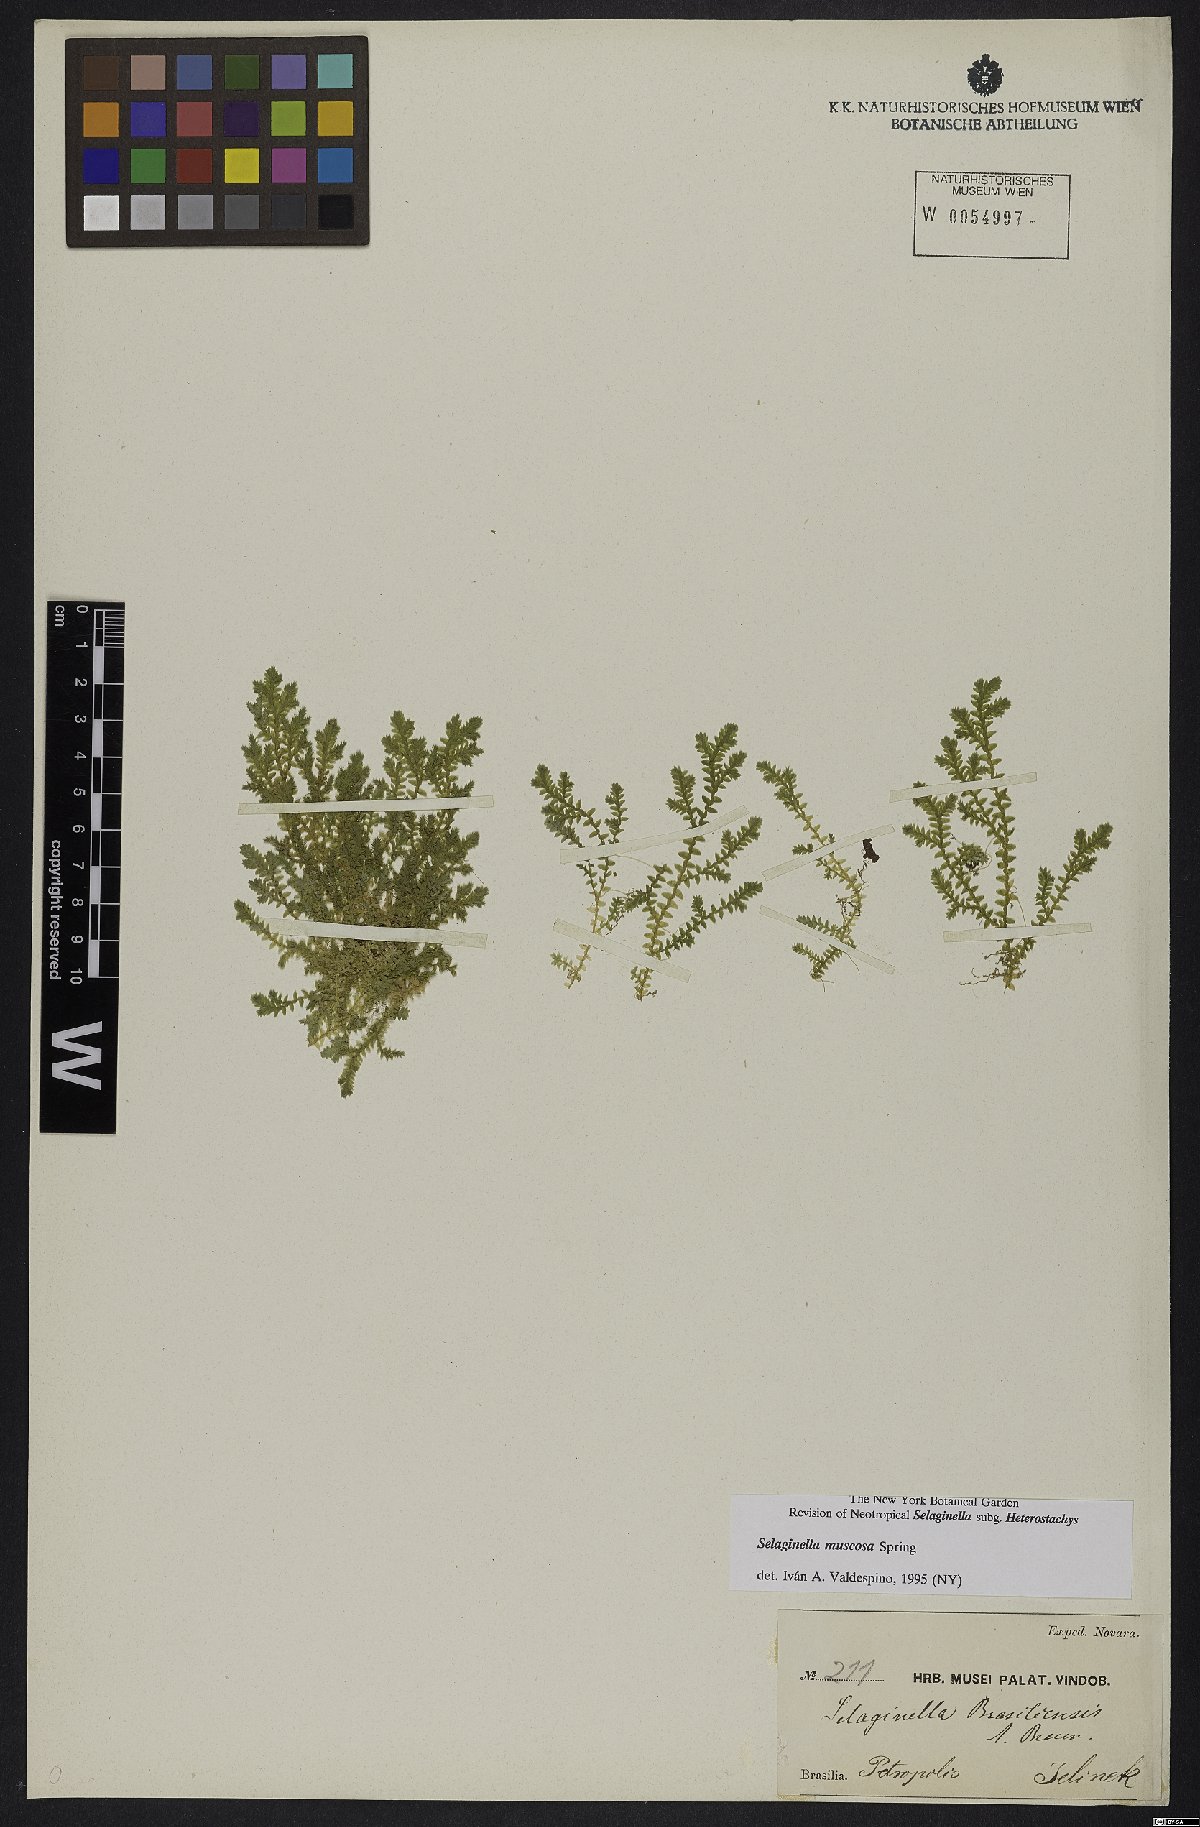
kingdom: Plantae
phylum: Tracheophyta
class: Lycopodiopsida
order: Selaginellales
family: Selaginellaceae
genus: Selaginella
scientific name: Selaginella muscosa
